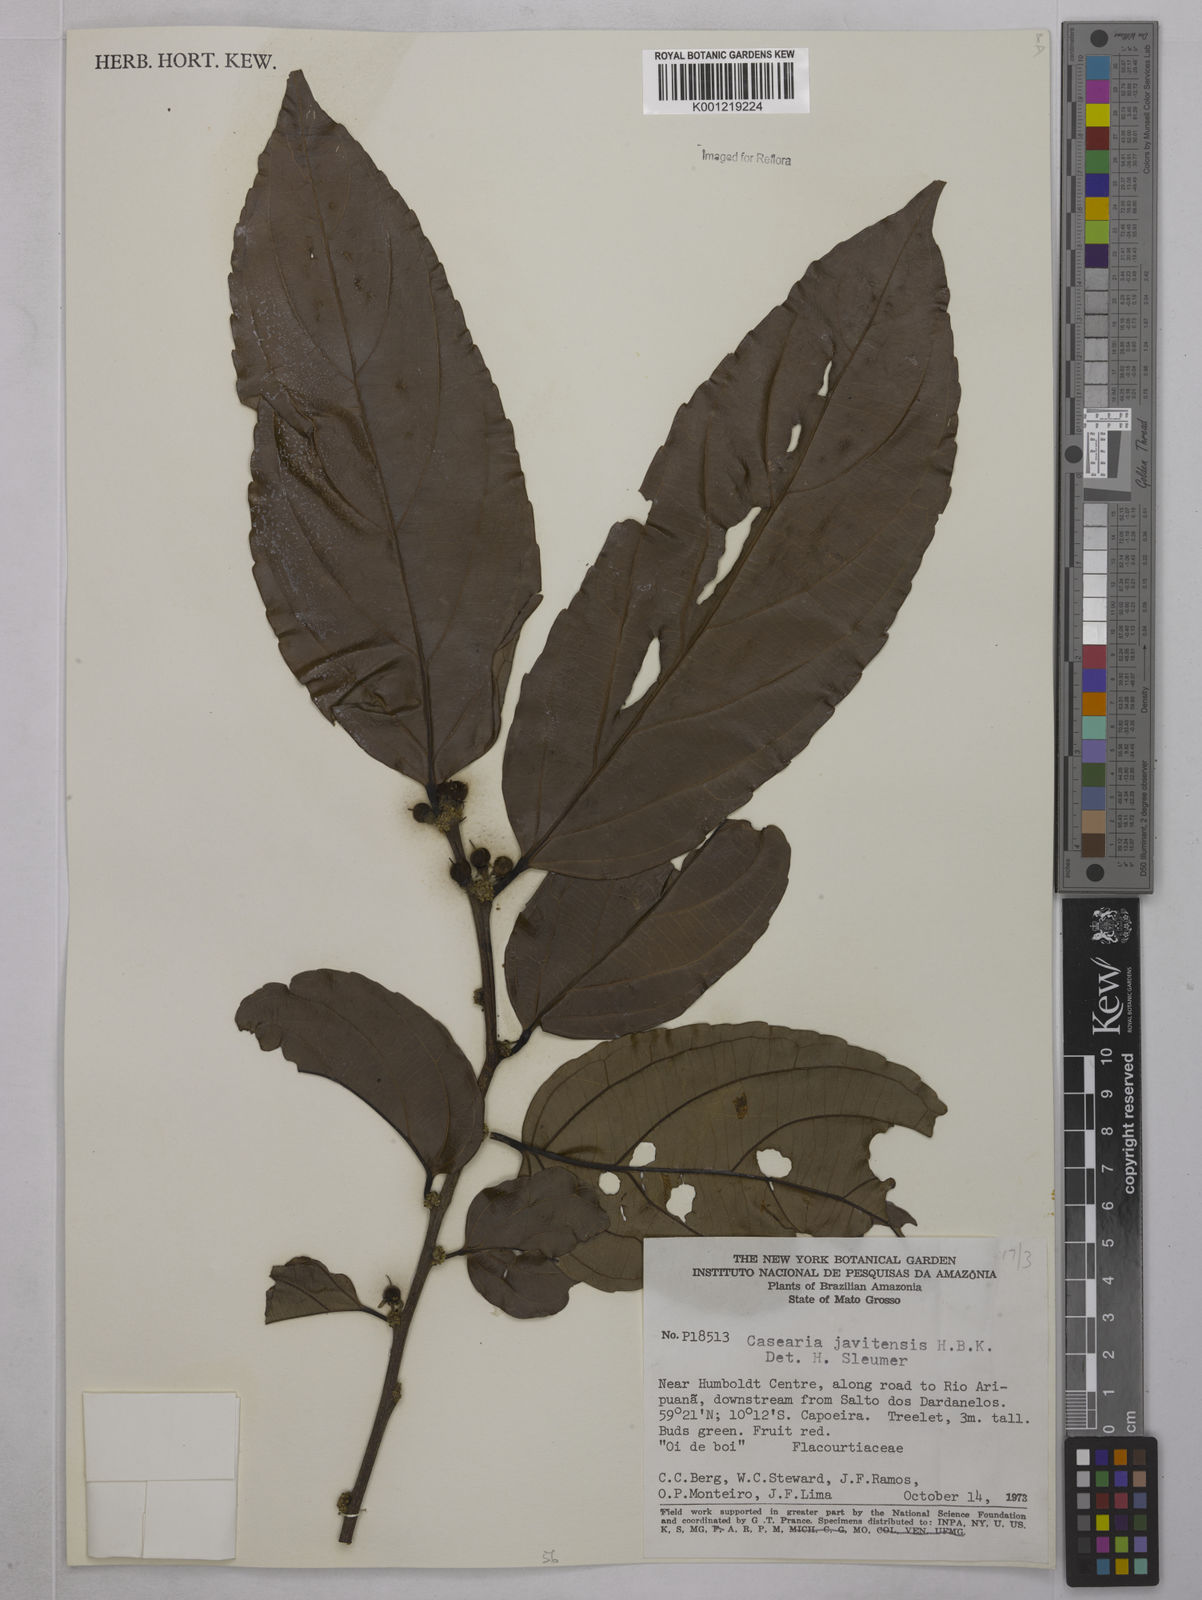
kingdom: Plantae
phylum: Tracheophyta
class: Magnoliopsida
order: Malpighiales
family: Salicaceae
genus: Piparea
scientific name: Piparea multiflora
